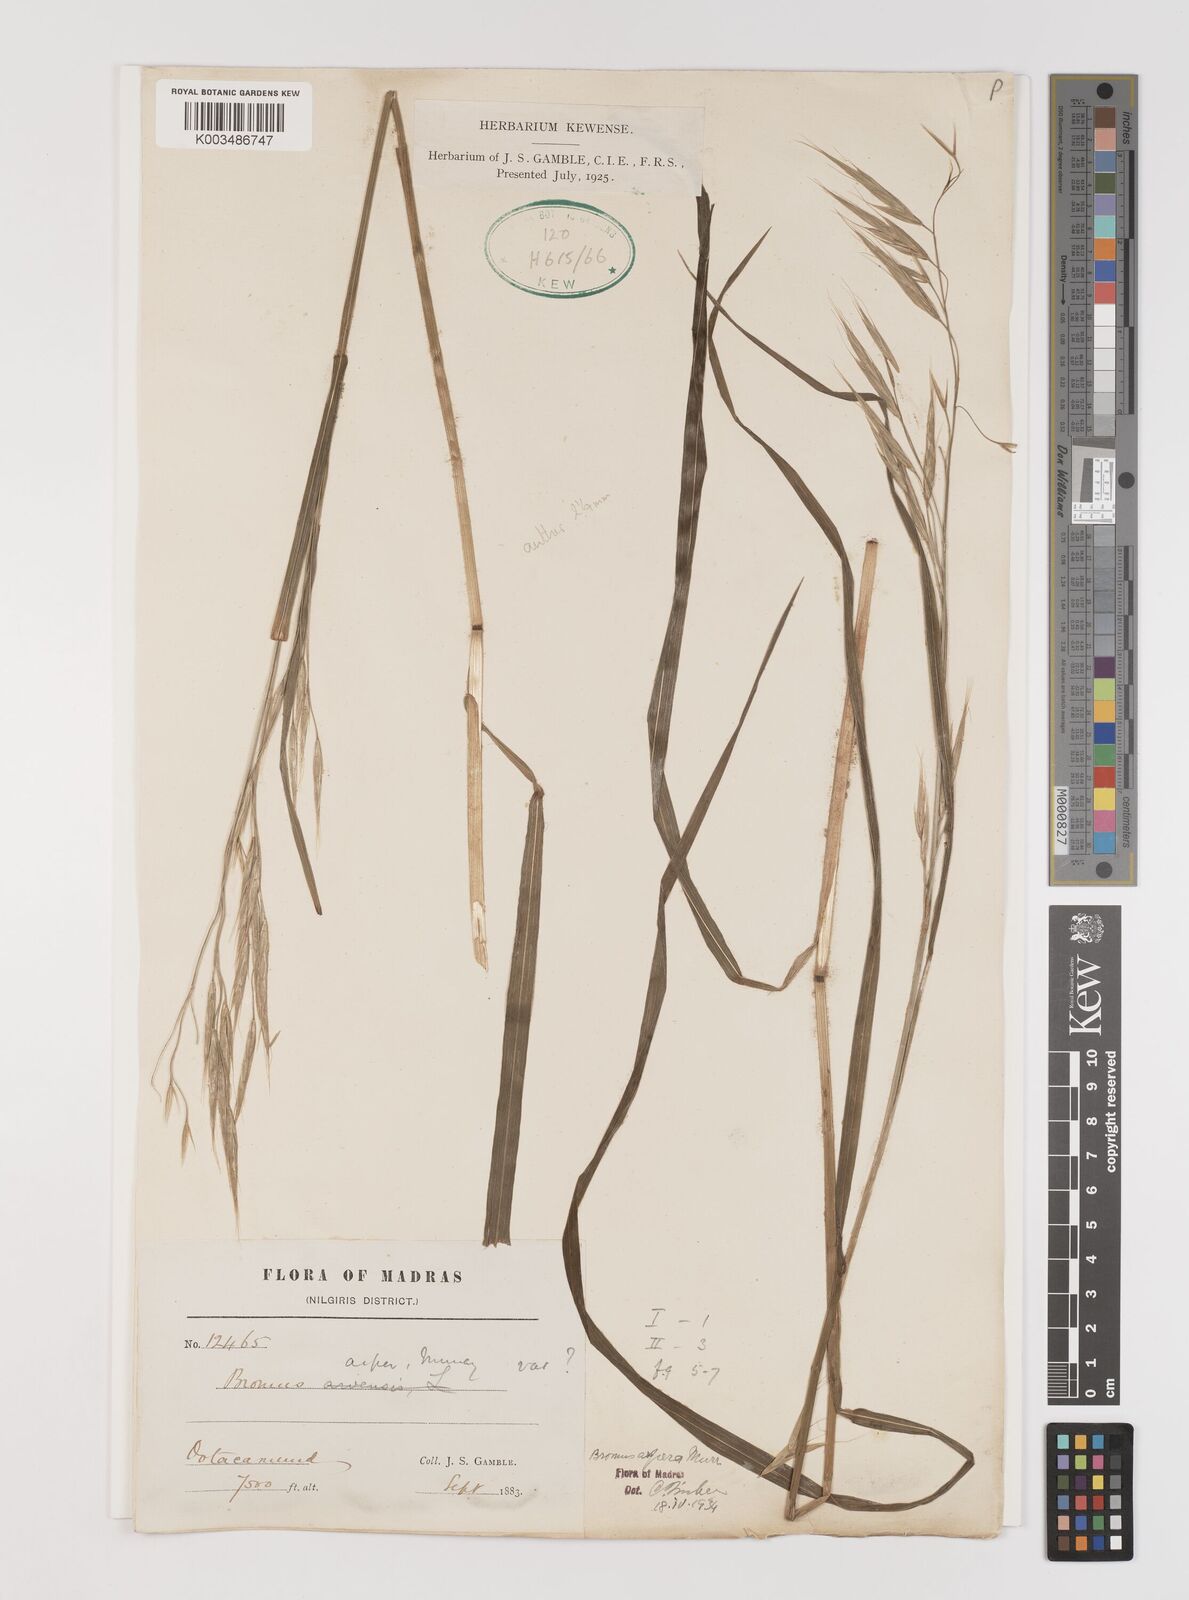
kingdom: Plantae
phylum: Tracheophyta
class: Liliopsida
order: Poales
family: Poaceae
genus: Brachypodium
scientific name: Brachypodium retusum
